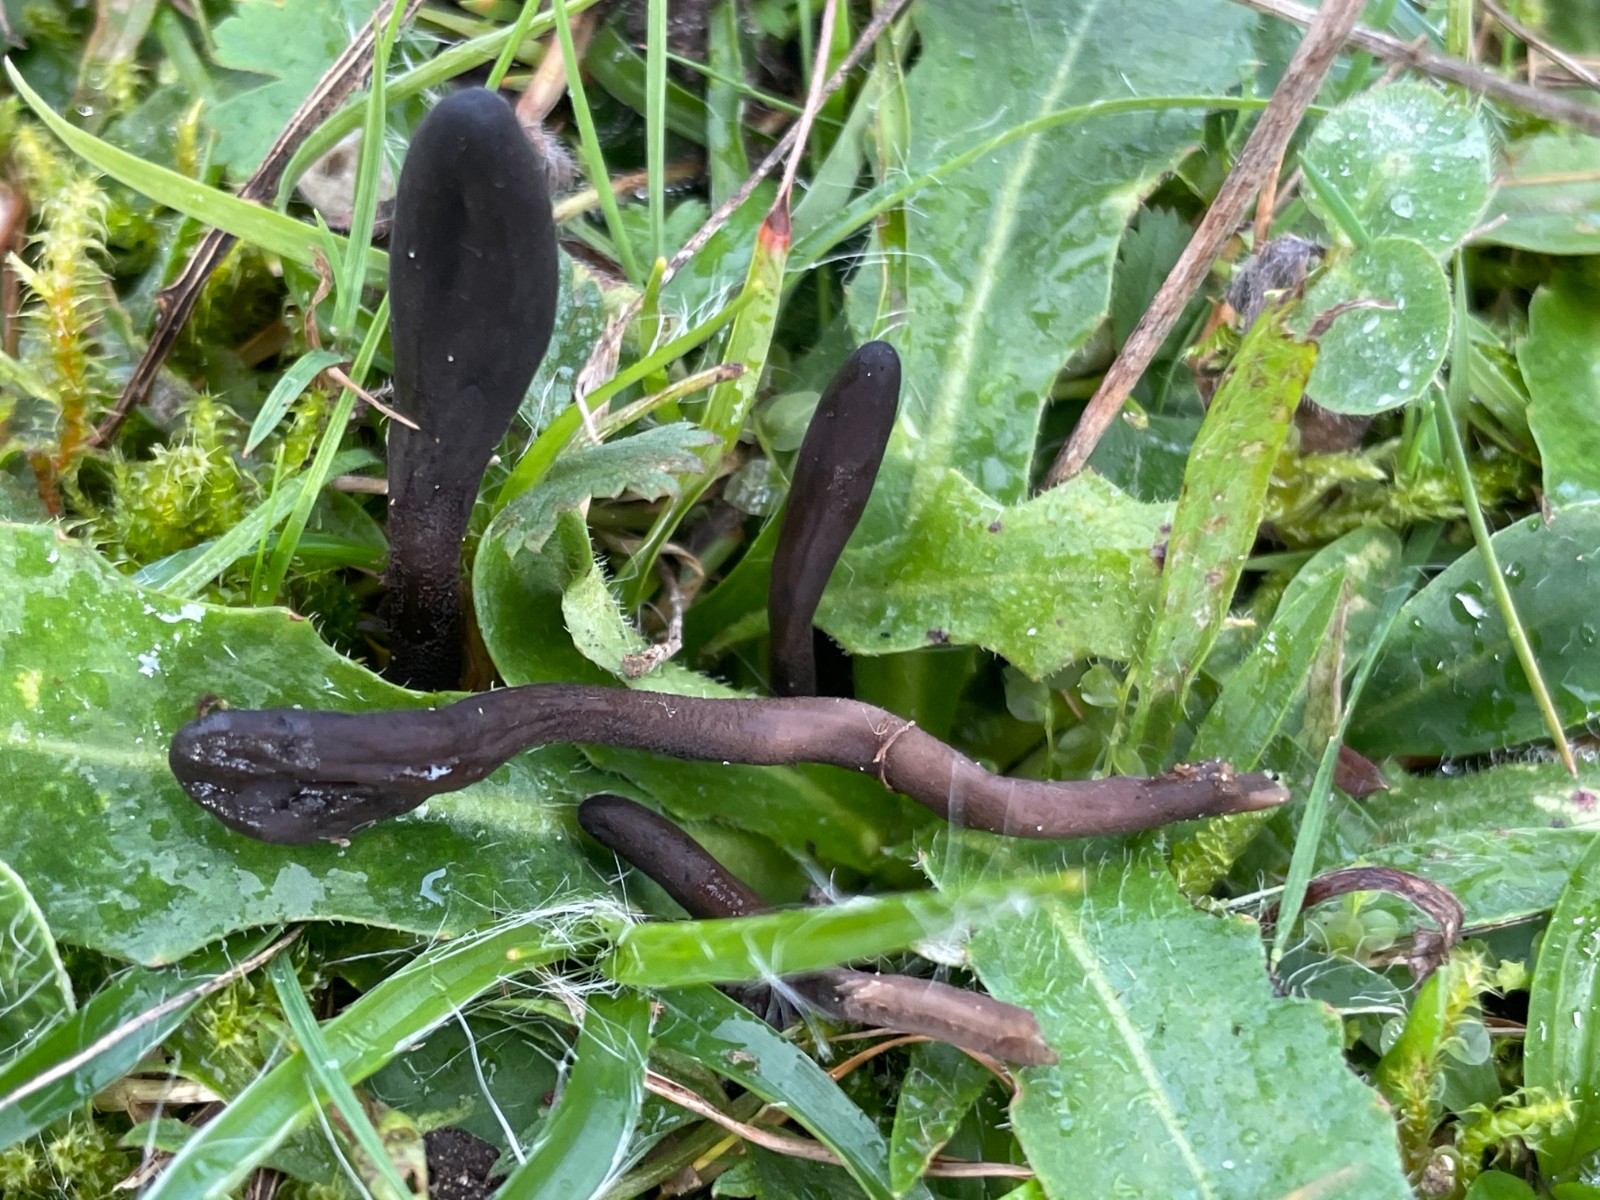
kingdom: Fungi
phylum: Ascomycota
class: Geoglossomycetes
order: Geoglossales
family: Geoglossaceae
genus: Geoglossum
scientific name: Geoglossum
